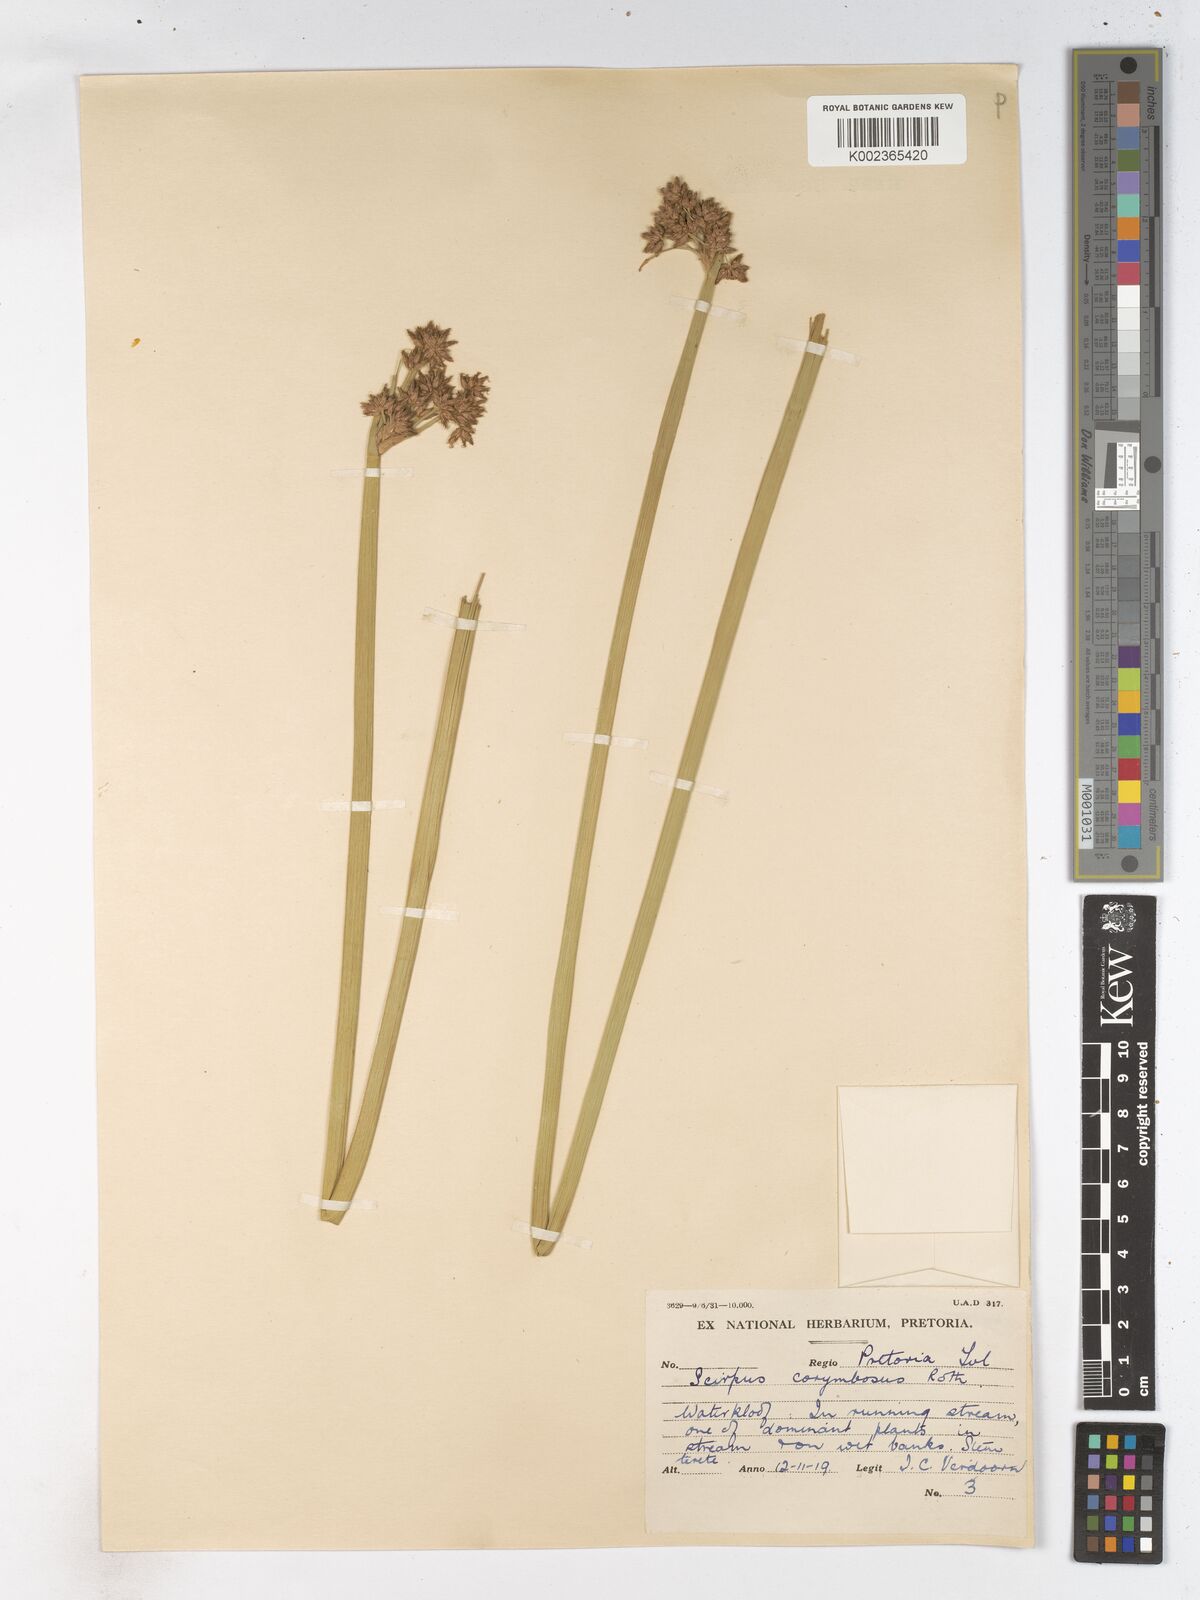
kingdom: Plantae
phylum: Tracheophyta
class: Liliopsida
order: Poales
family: Cyperaceae
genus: Schoenoplectiella
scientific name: Schoenoplectiella brachyceras
